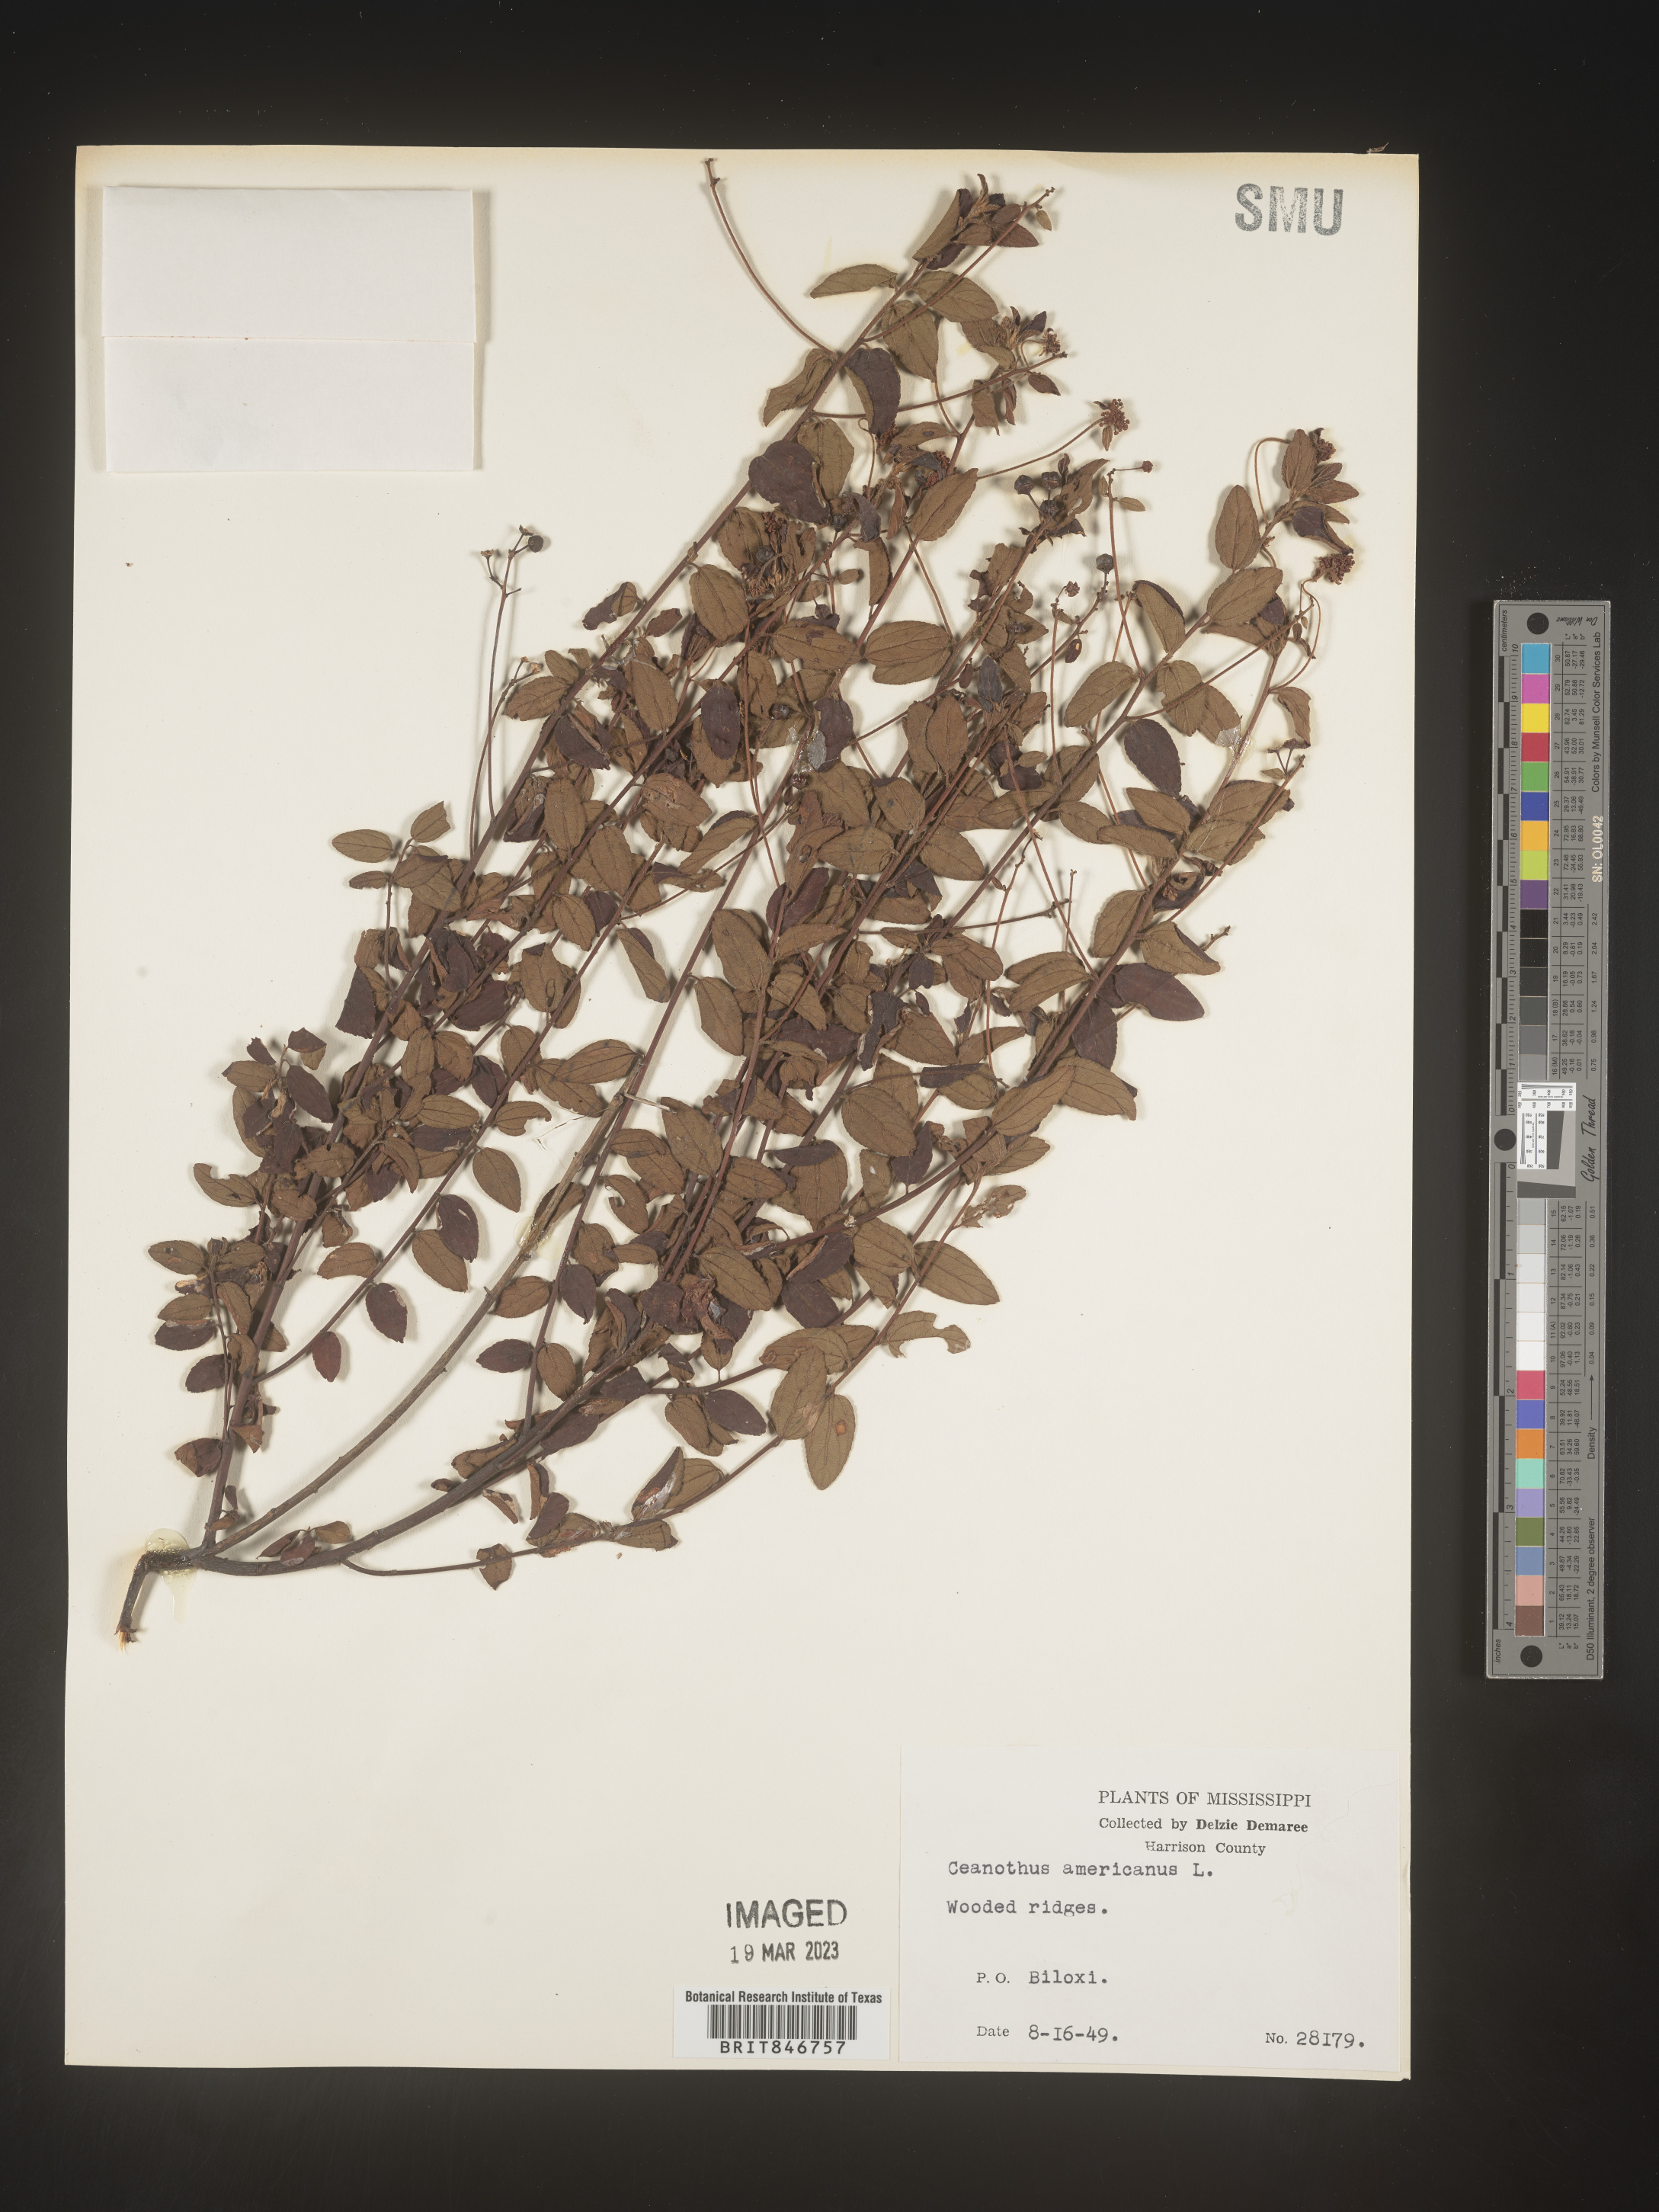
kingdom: Plantae
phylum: Tracheophyta
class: Magnoliopsida
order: Rosales
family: Rhamnaceae
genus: Ceanothus
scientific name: Ceanothus americanus
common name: Redroot
